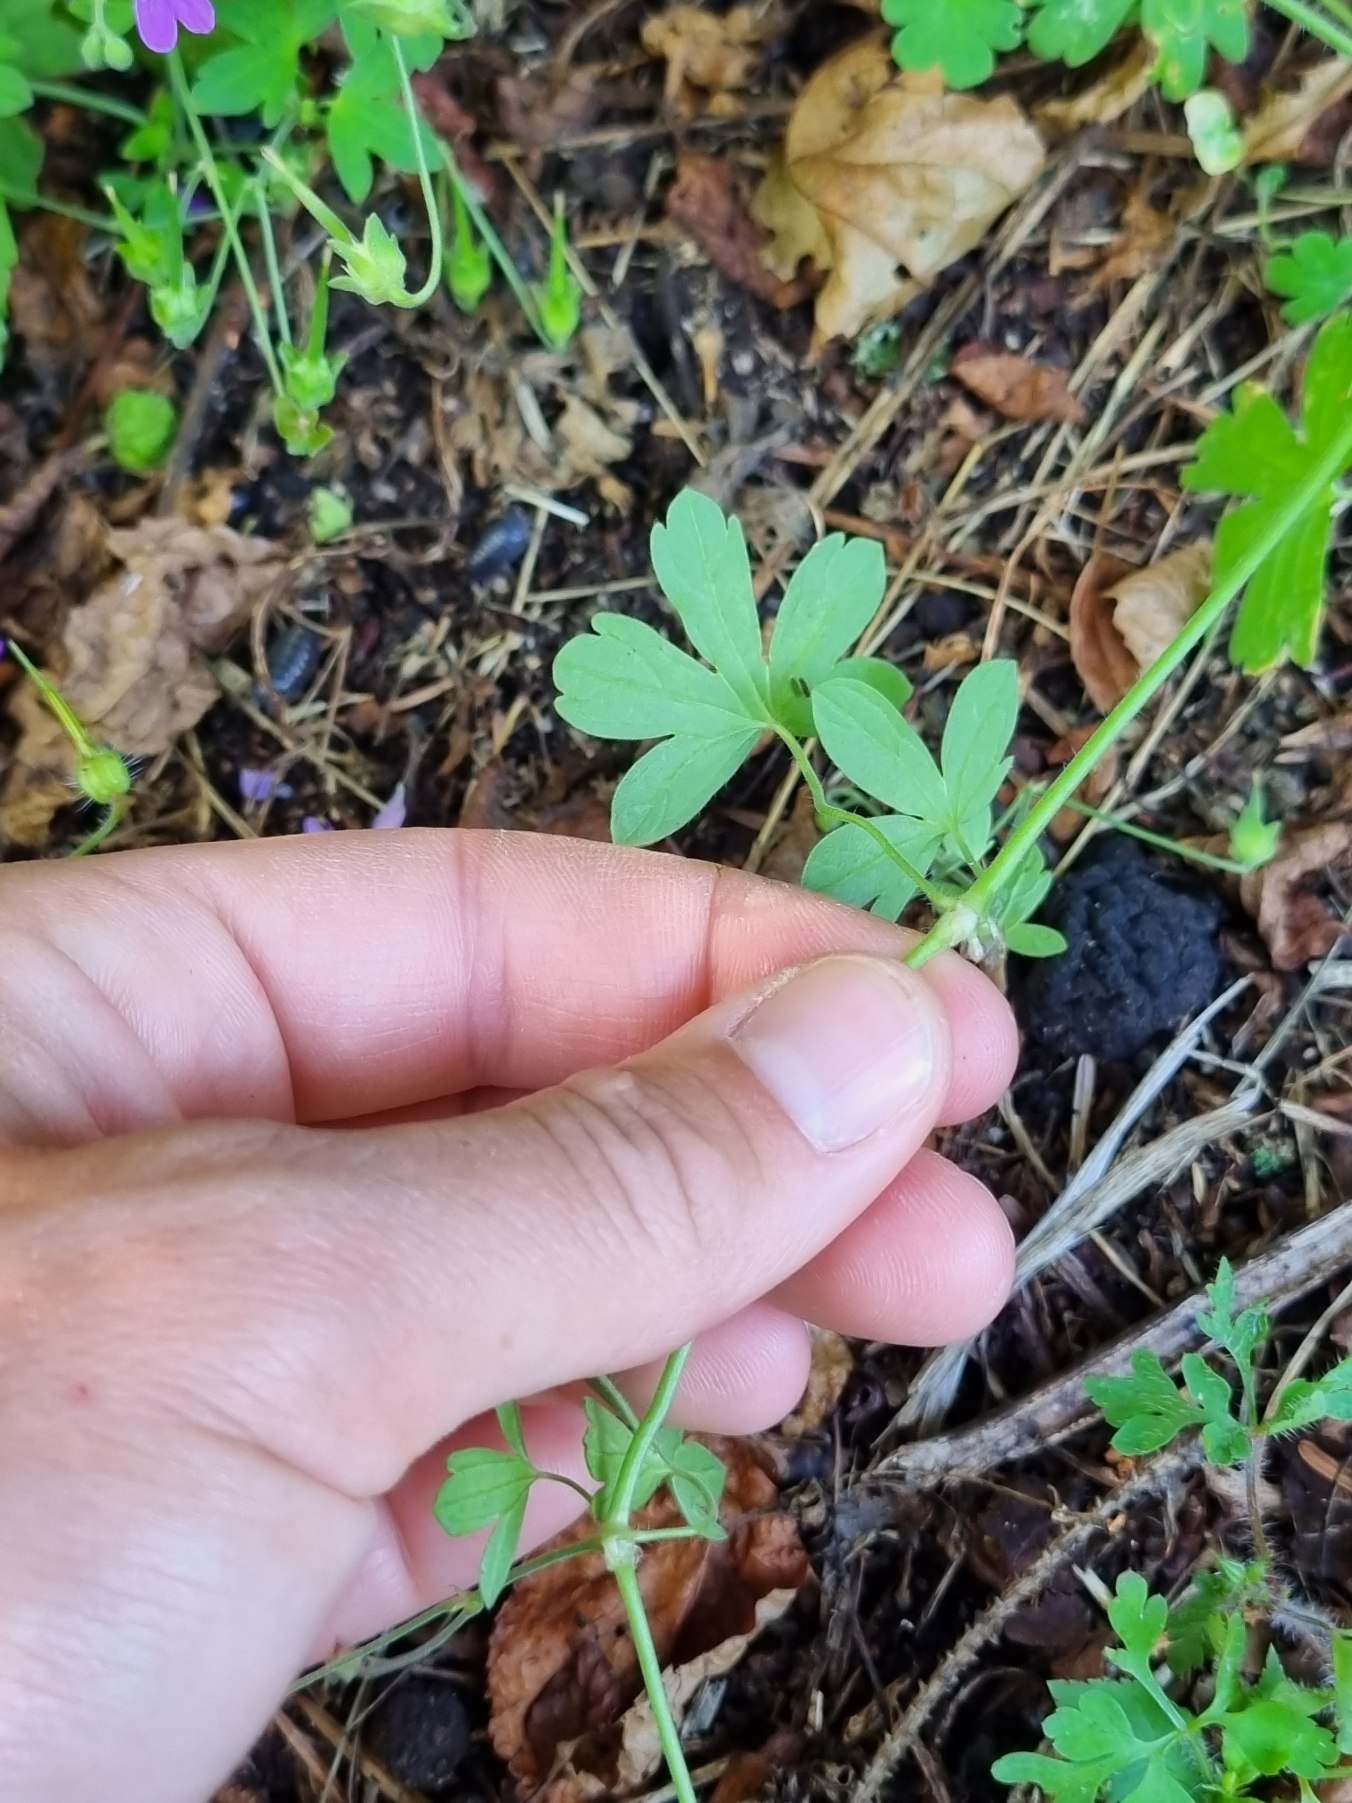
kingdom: Plantae
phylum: Tracheophyta
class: Magnoliopsida
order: Geraniales
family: Geraniaceae
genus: Geranium
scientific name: Geranium pyrenaicum
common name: Pyrenæisk storkenæb
